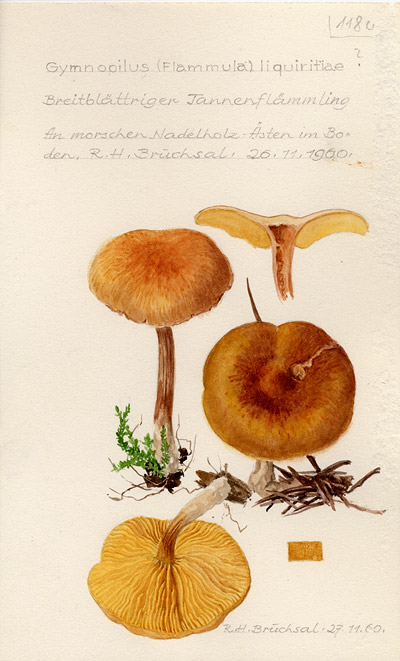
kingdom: Fungi
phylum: Basidiomycota
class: Agaricomycetes
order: Agaricales
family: Hymenogastraceae
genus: Gymnopilus
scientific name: Gymnopilus liquiritiae
